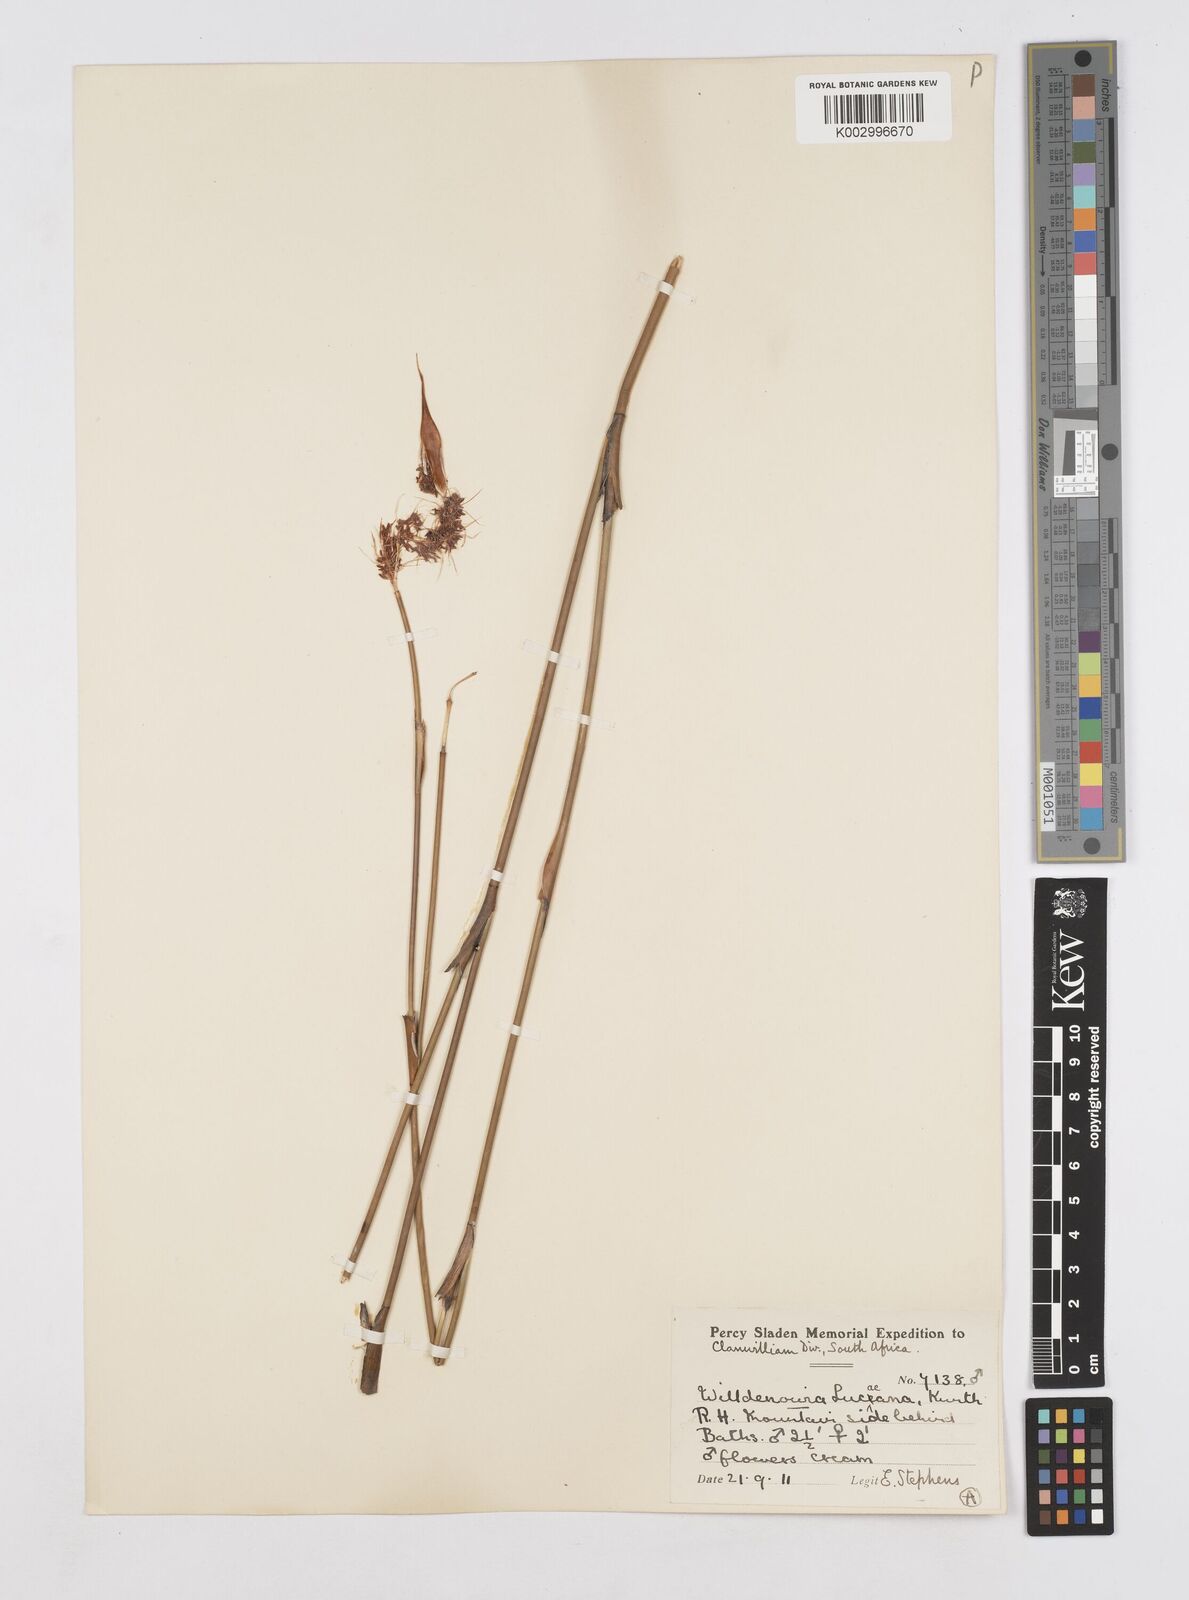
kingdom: Plantae
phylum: Tracheophyta
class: Liliopsida
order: Poales
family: Restionaceae
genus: Willdenowia
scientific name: Willdenowia glomerata
